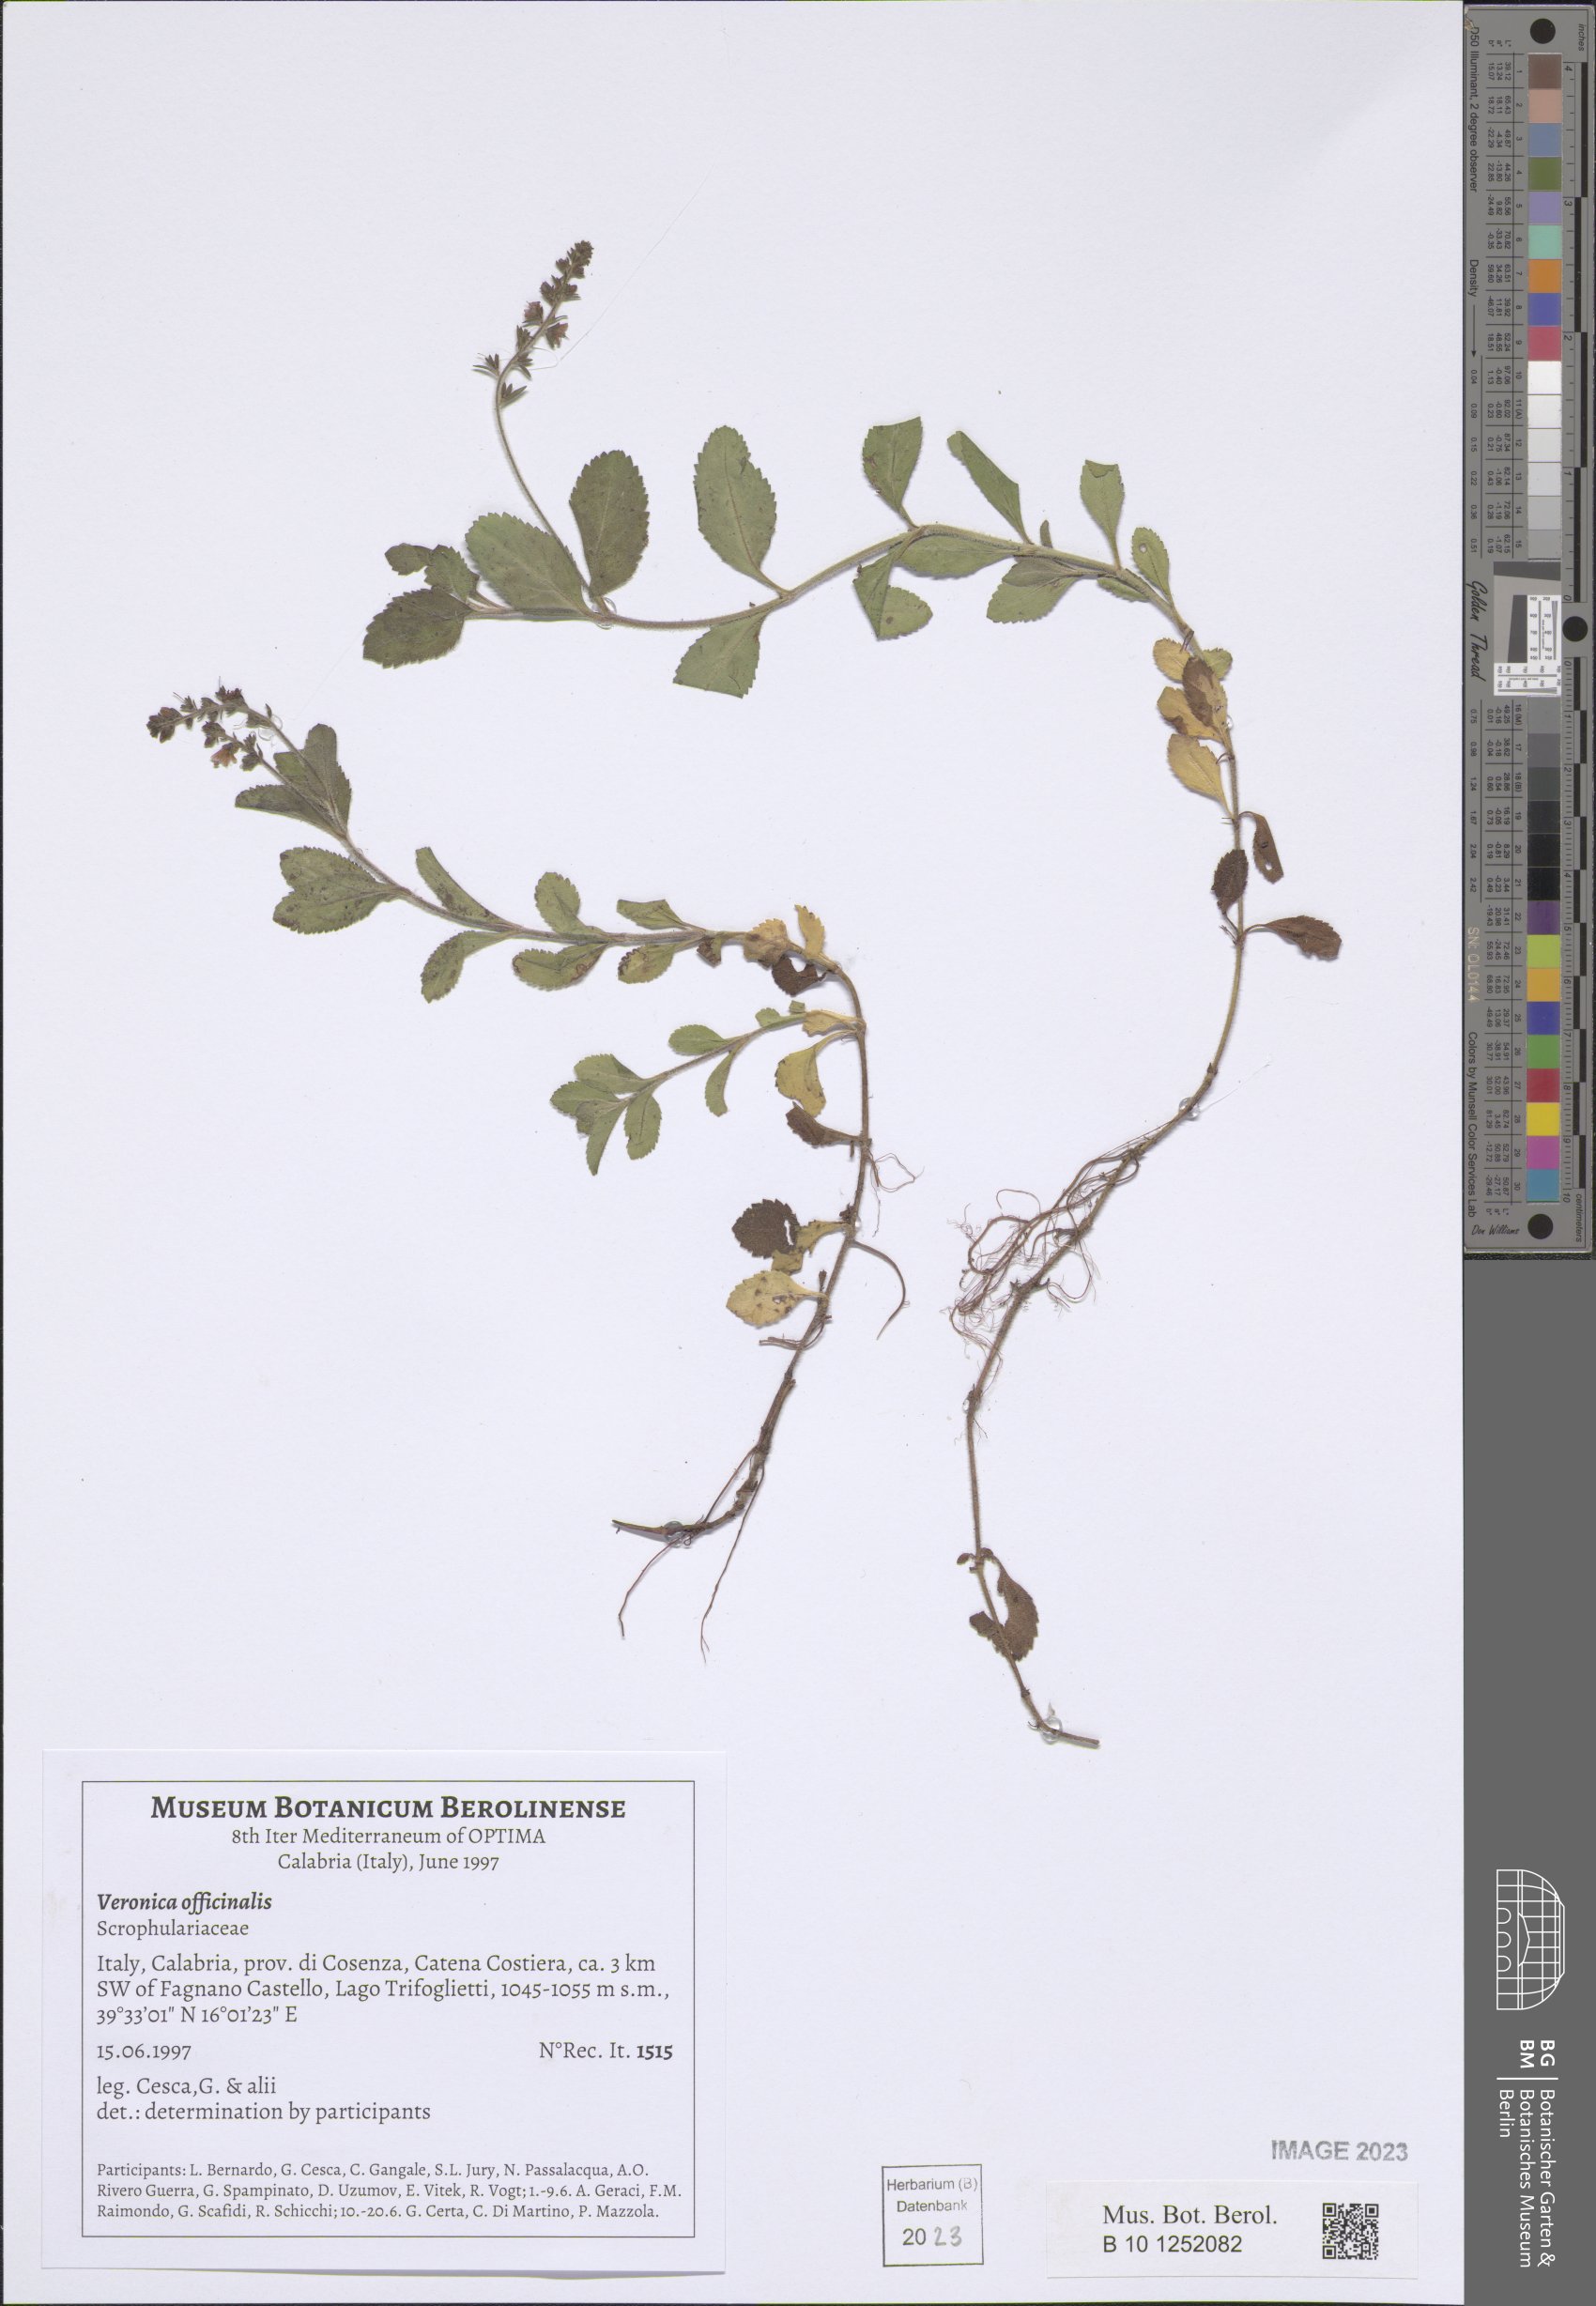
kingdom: Plantae
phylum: Tracheophyta
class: Magnoliopsida
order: Lamiales
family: Plantaginaceae
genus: Veronica
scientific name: Veronica officinalis
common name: Common speedwell
